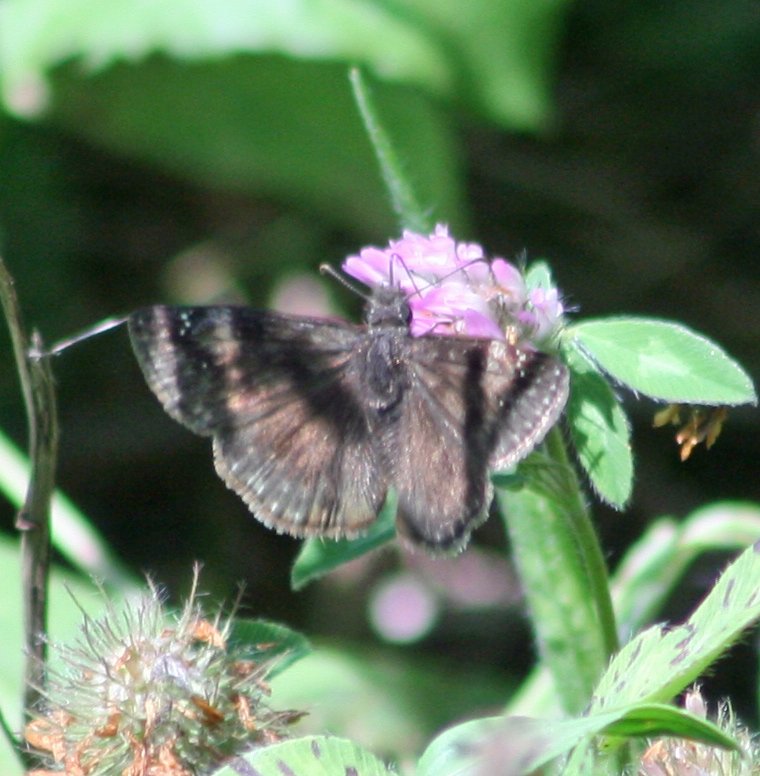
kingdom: Animalia
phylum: Arthropoda
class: Insecta
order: Lepidoptera
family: Hesperiidae
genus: Gesta
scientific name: Gesta
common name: Wild Indigo Duskywing
